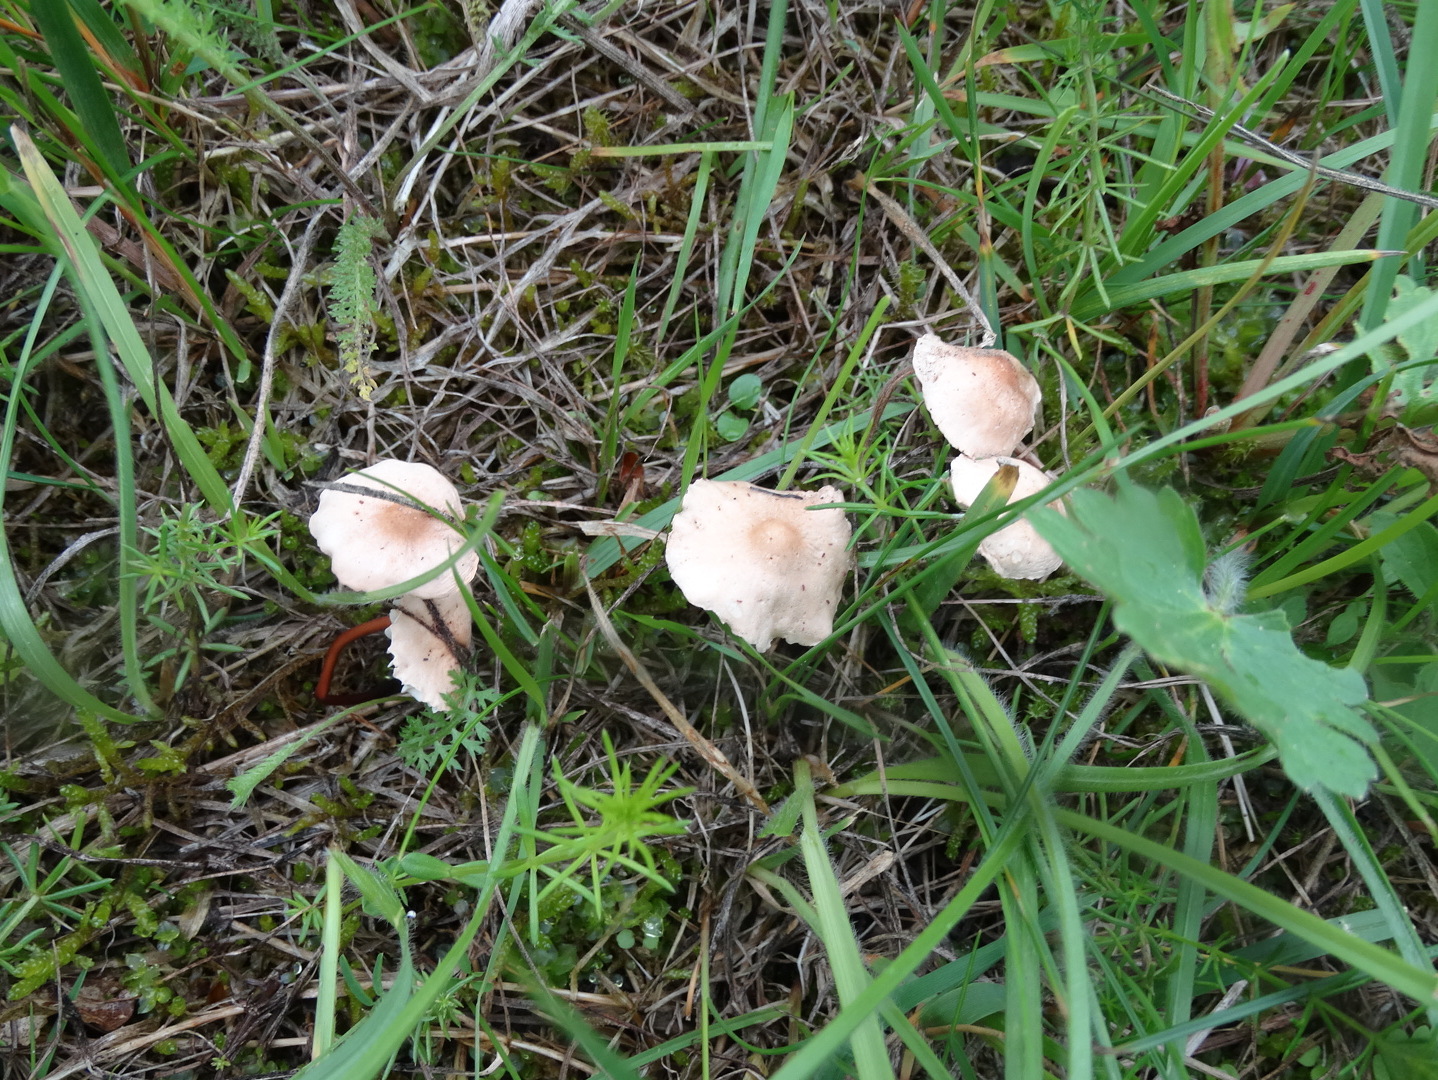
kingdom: Fungi
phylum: Basidiomycota
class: Agaricomycetes
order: Agaricales
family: Omphalotaceae
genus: Mycetinis
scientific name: Mycetinis scorodonius
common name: lille løghat
